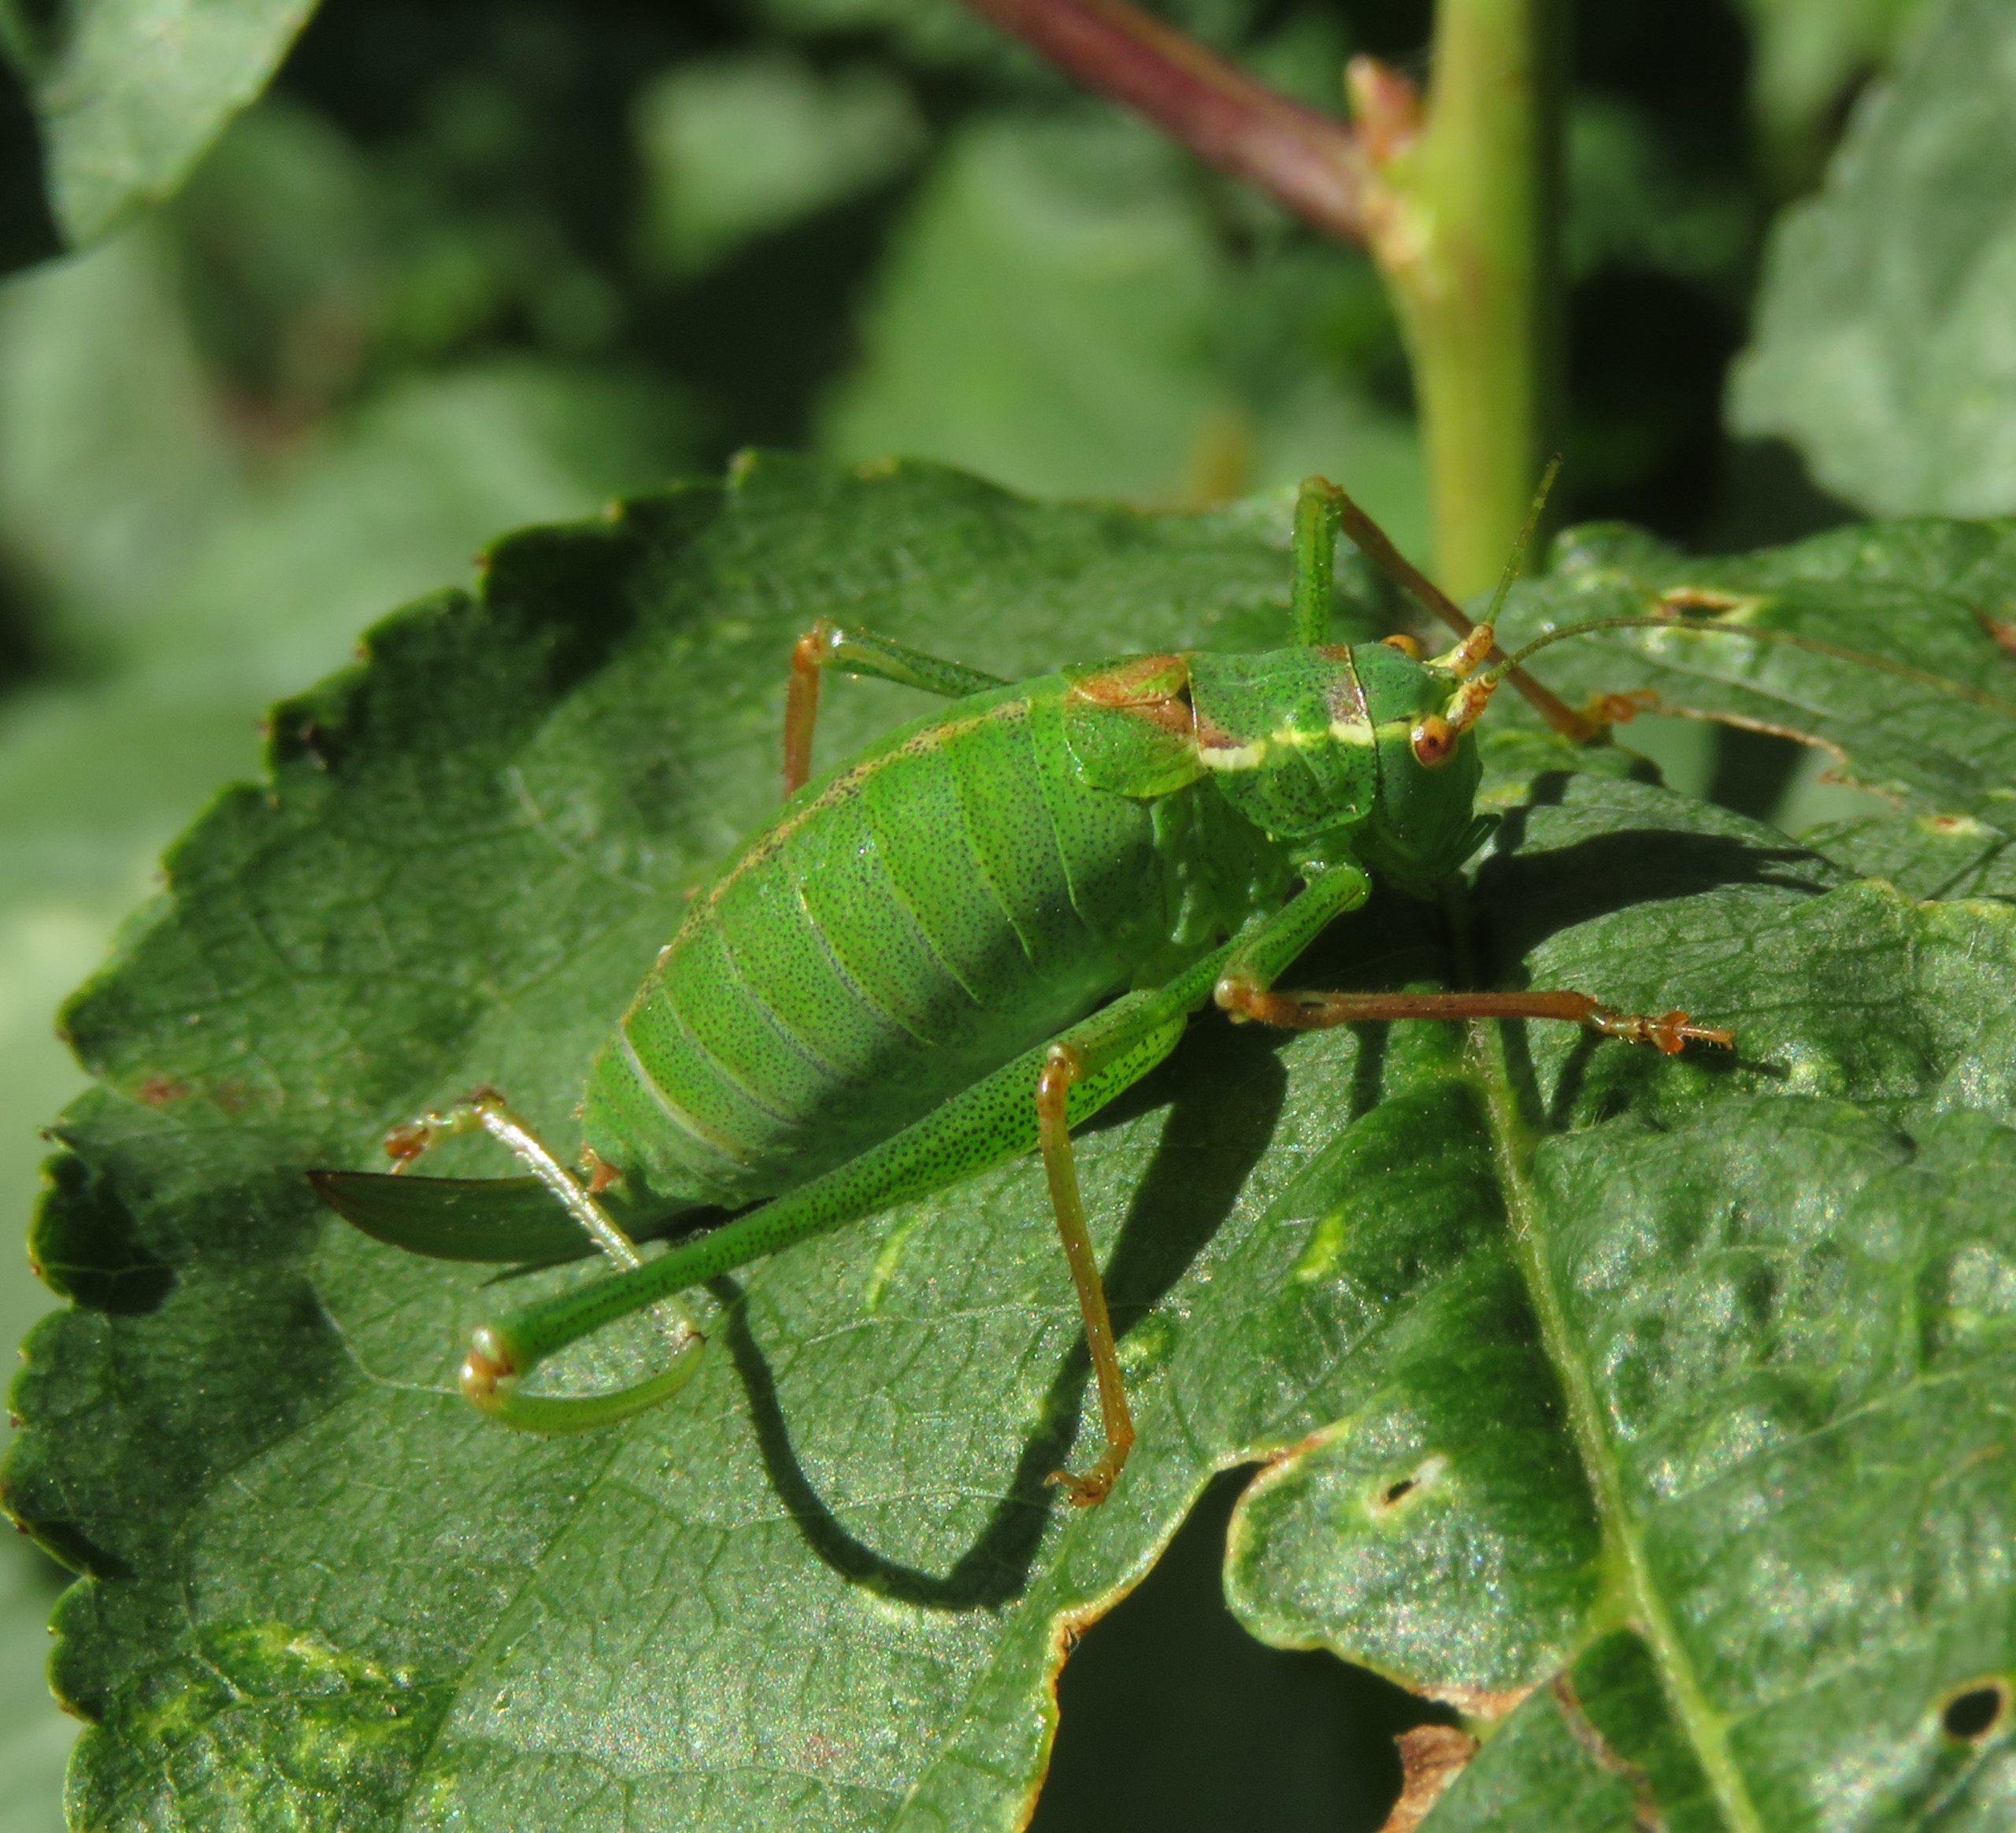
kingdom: Animalia
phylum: Arthropoda
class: Insecta
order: Orthoptera
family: Tettigoniidae
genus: Leptophyes
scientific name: Leptophyes punctatissima
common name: Krumknivgræshoppe
